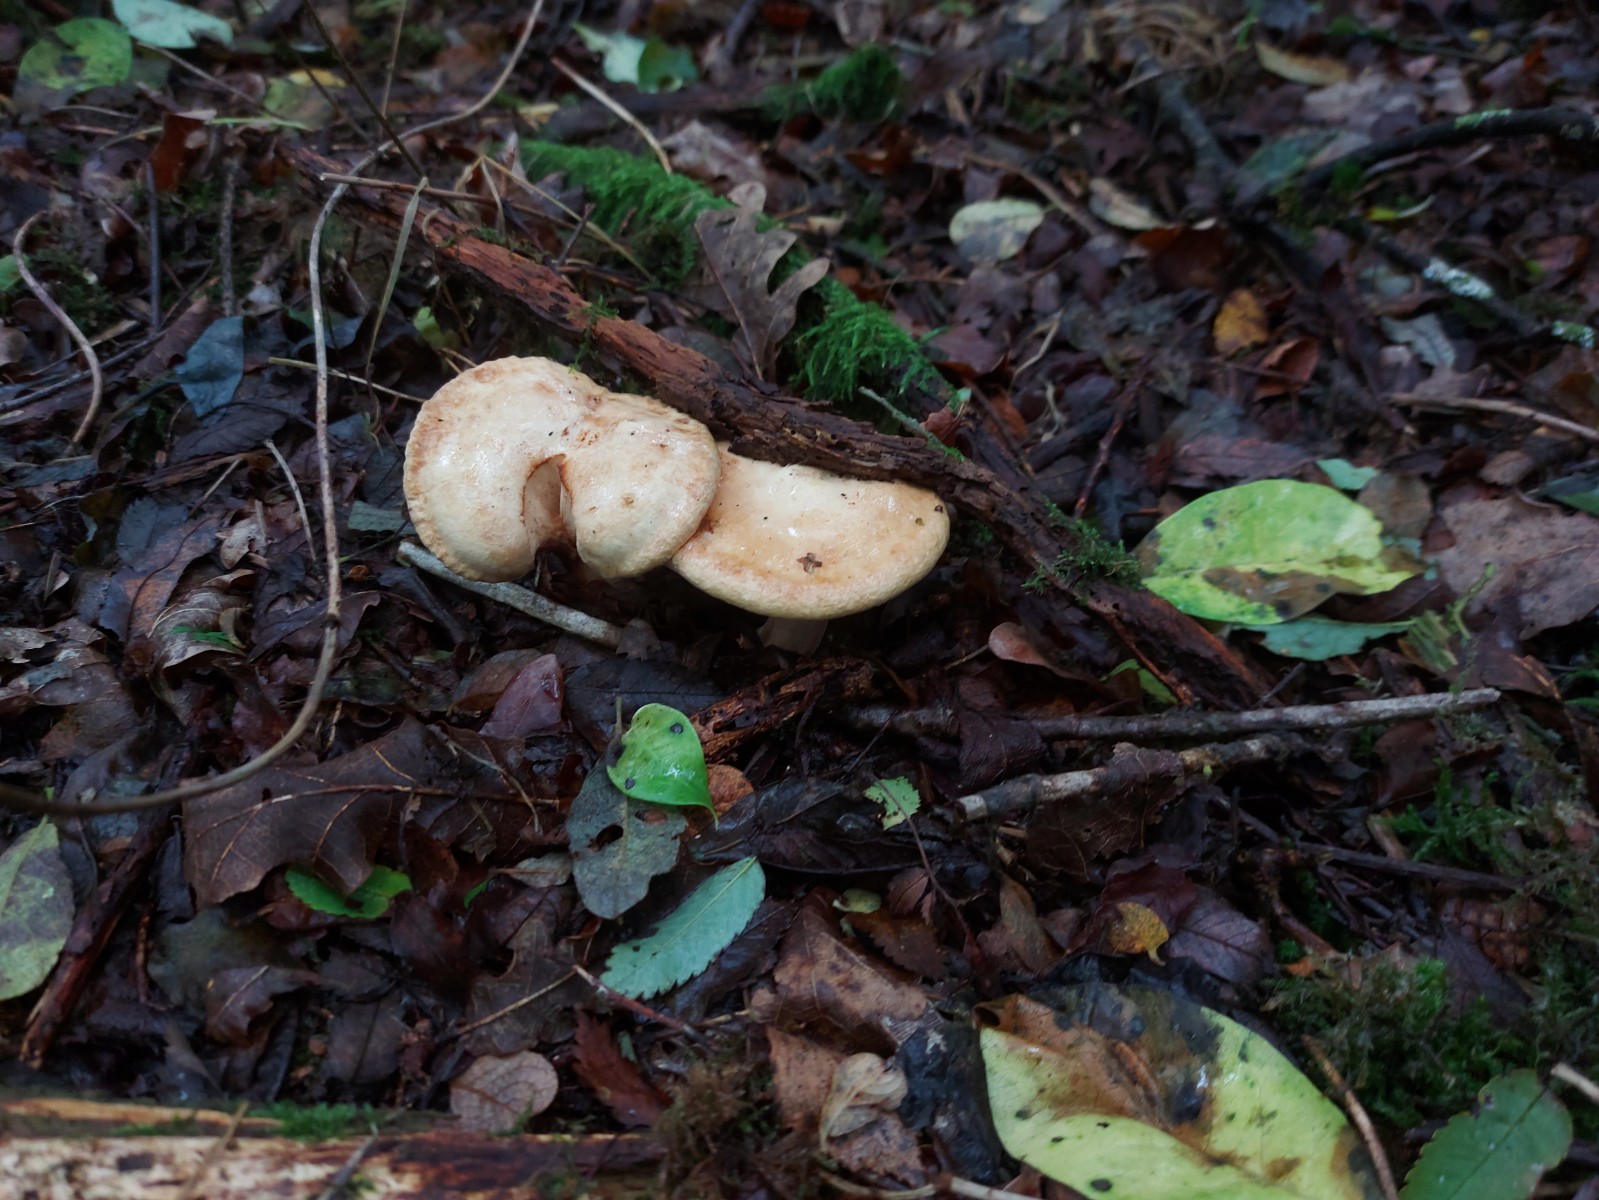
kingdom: Fungi
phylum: Basidiomycota
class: Agaricomycetes
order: Boletales
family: Paxillaceae
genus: Paxillus
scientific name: Paxillus
